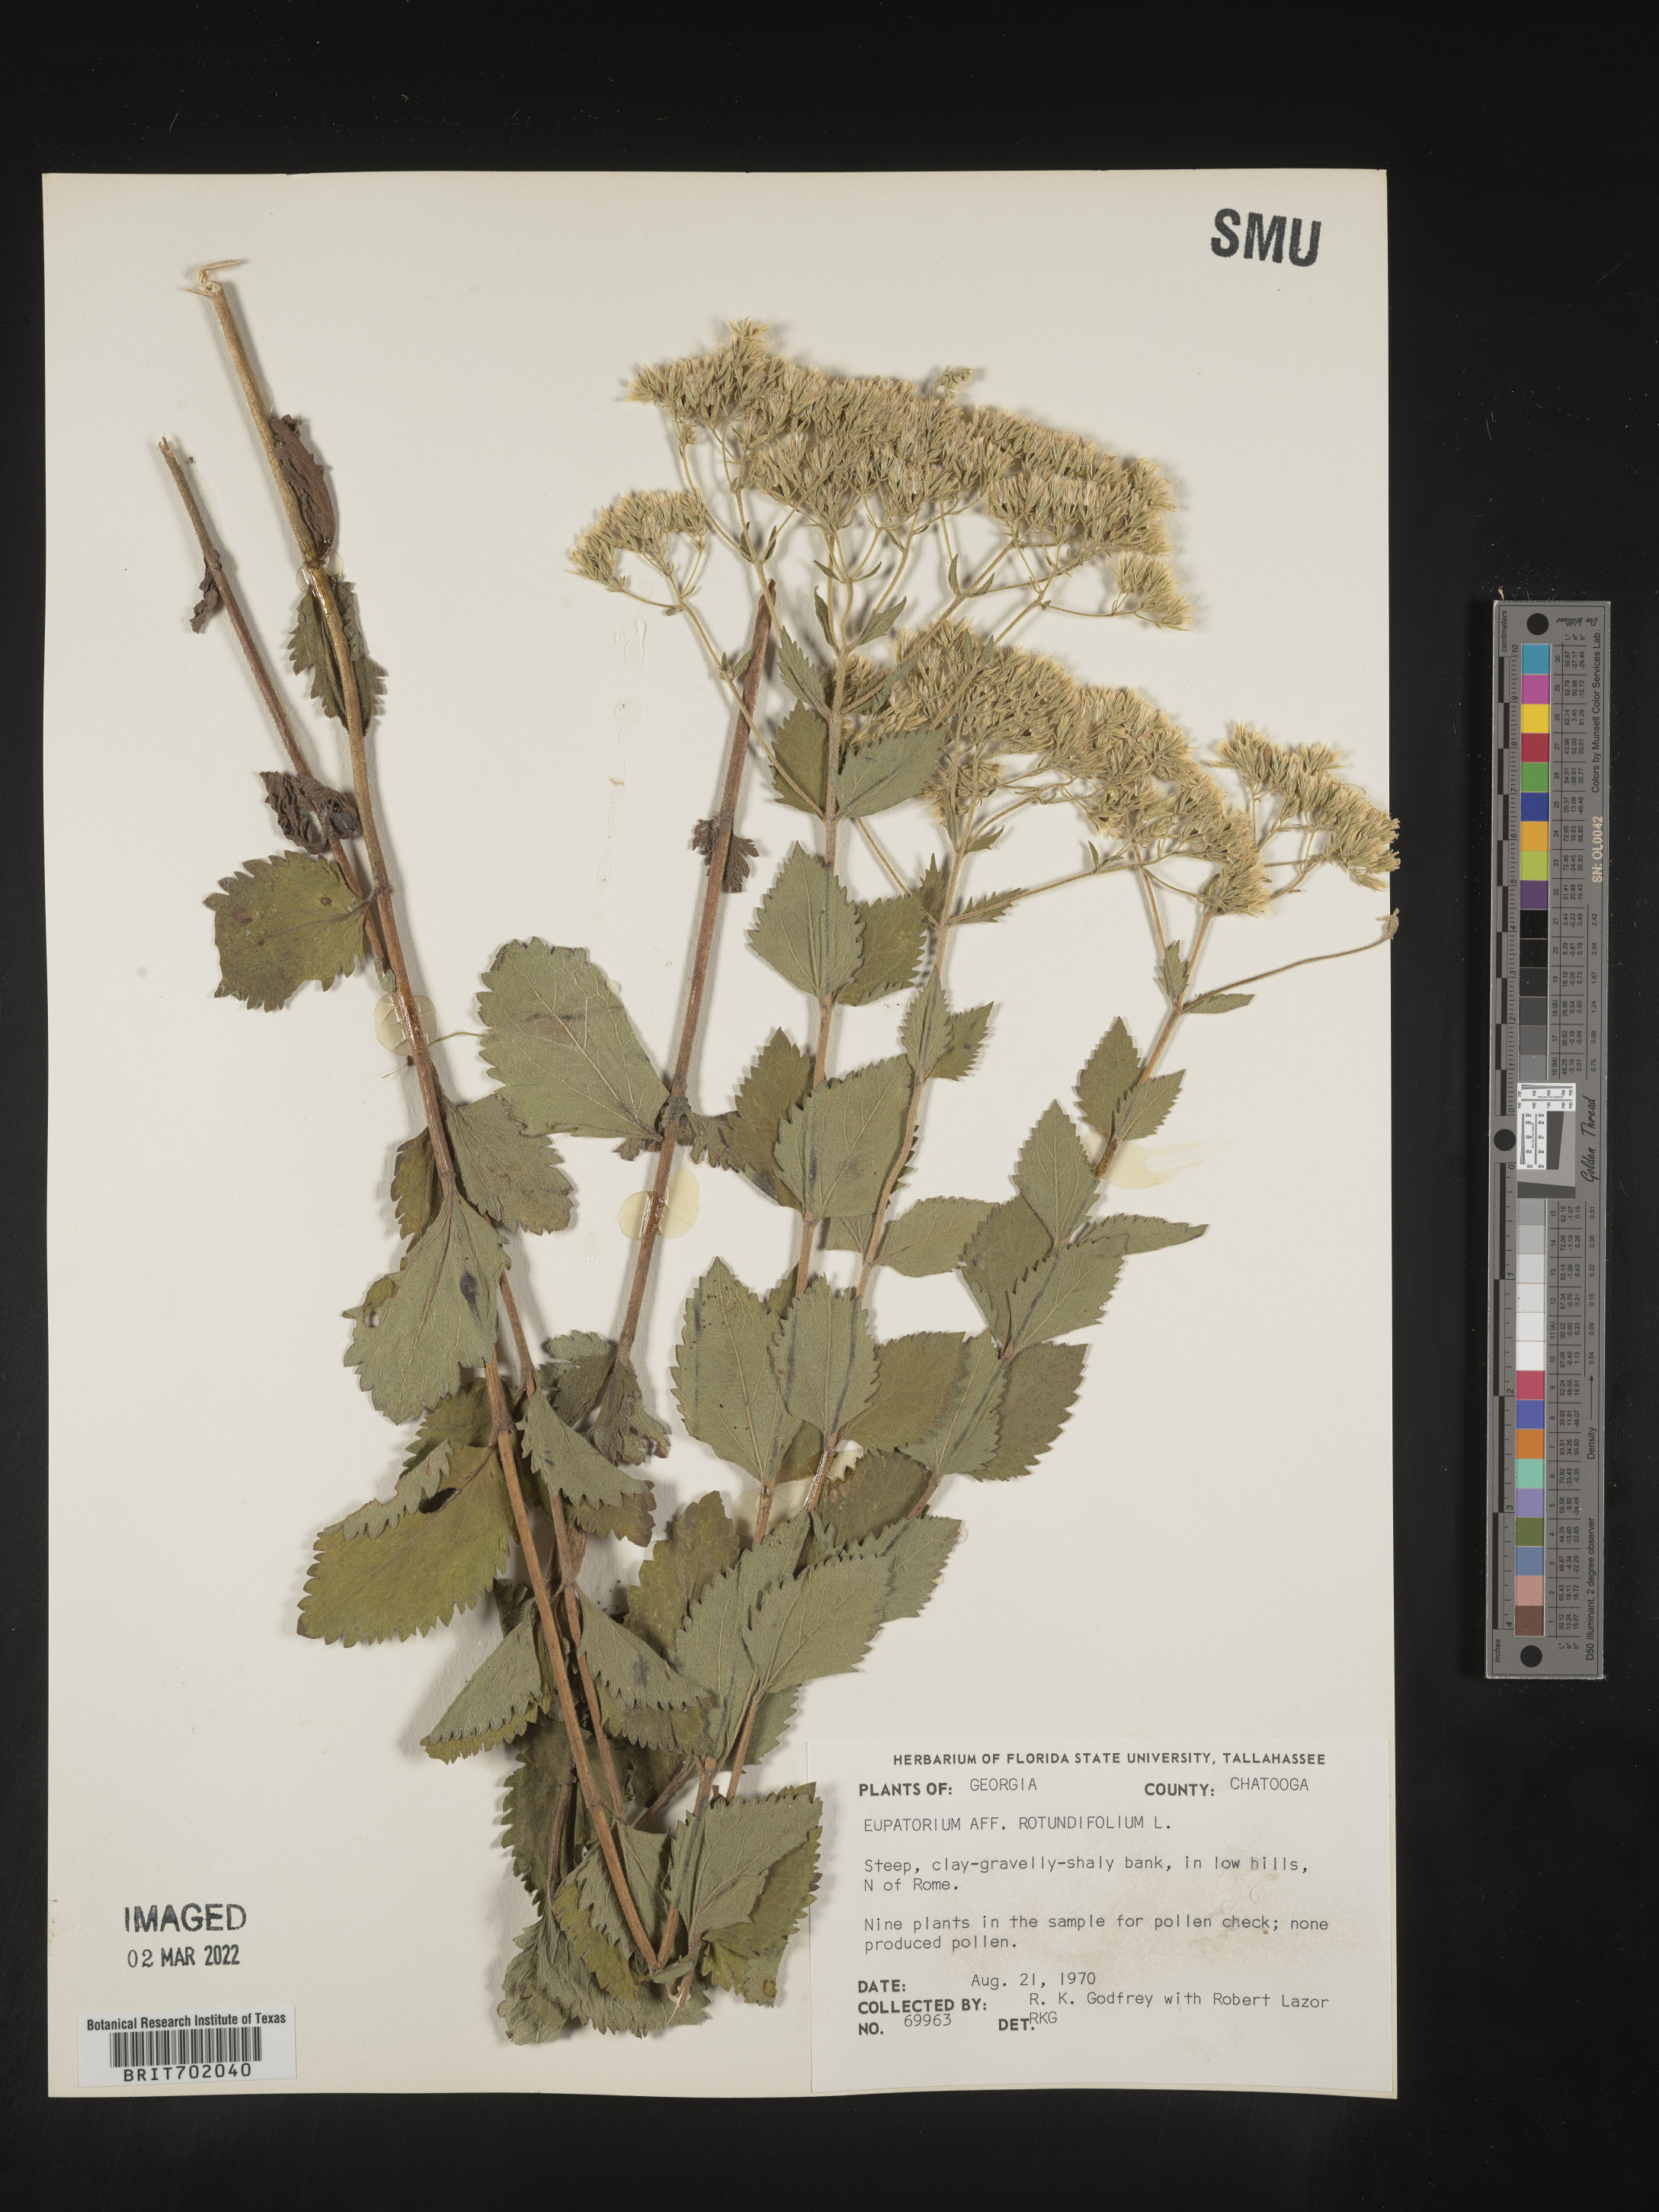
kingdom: Plantae
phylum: Tracheophyta
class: Magnoliopsida
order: Asterales
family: Asteraceae
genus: Eupatorium
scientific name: Eupatorium rotundifolium
